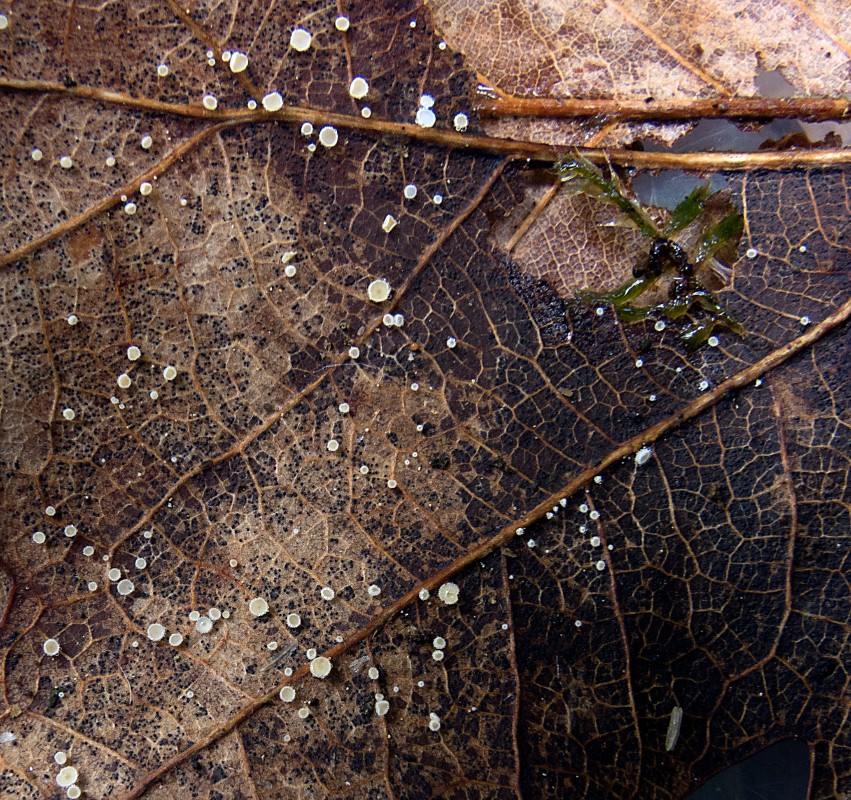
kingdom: Fungi
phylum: Ascomycota
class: Leotiomycetes
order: Helotiales
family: Lachnaceae
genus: Lachnum
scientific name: Lachnum rhytismatis
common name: blad-frynseskive
